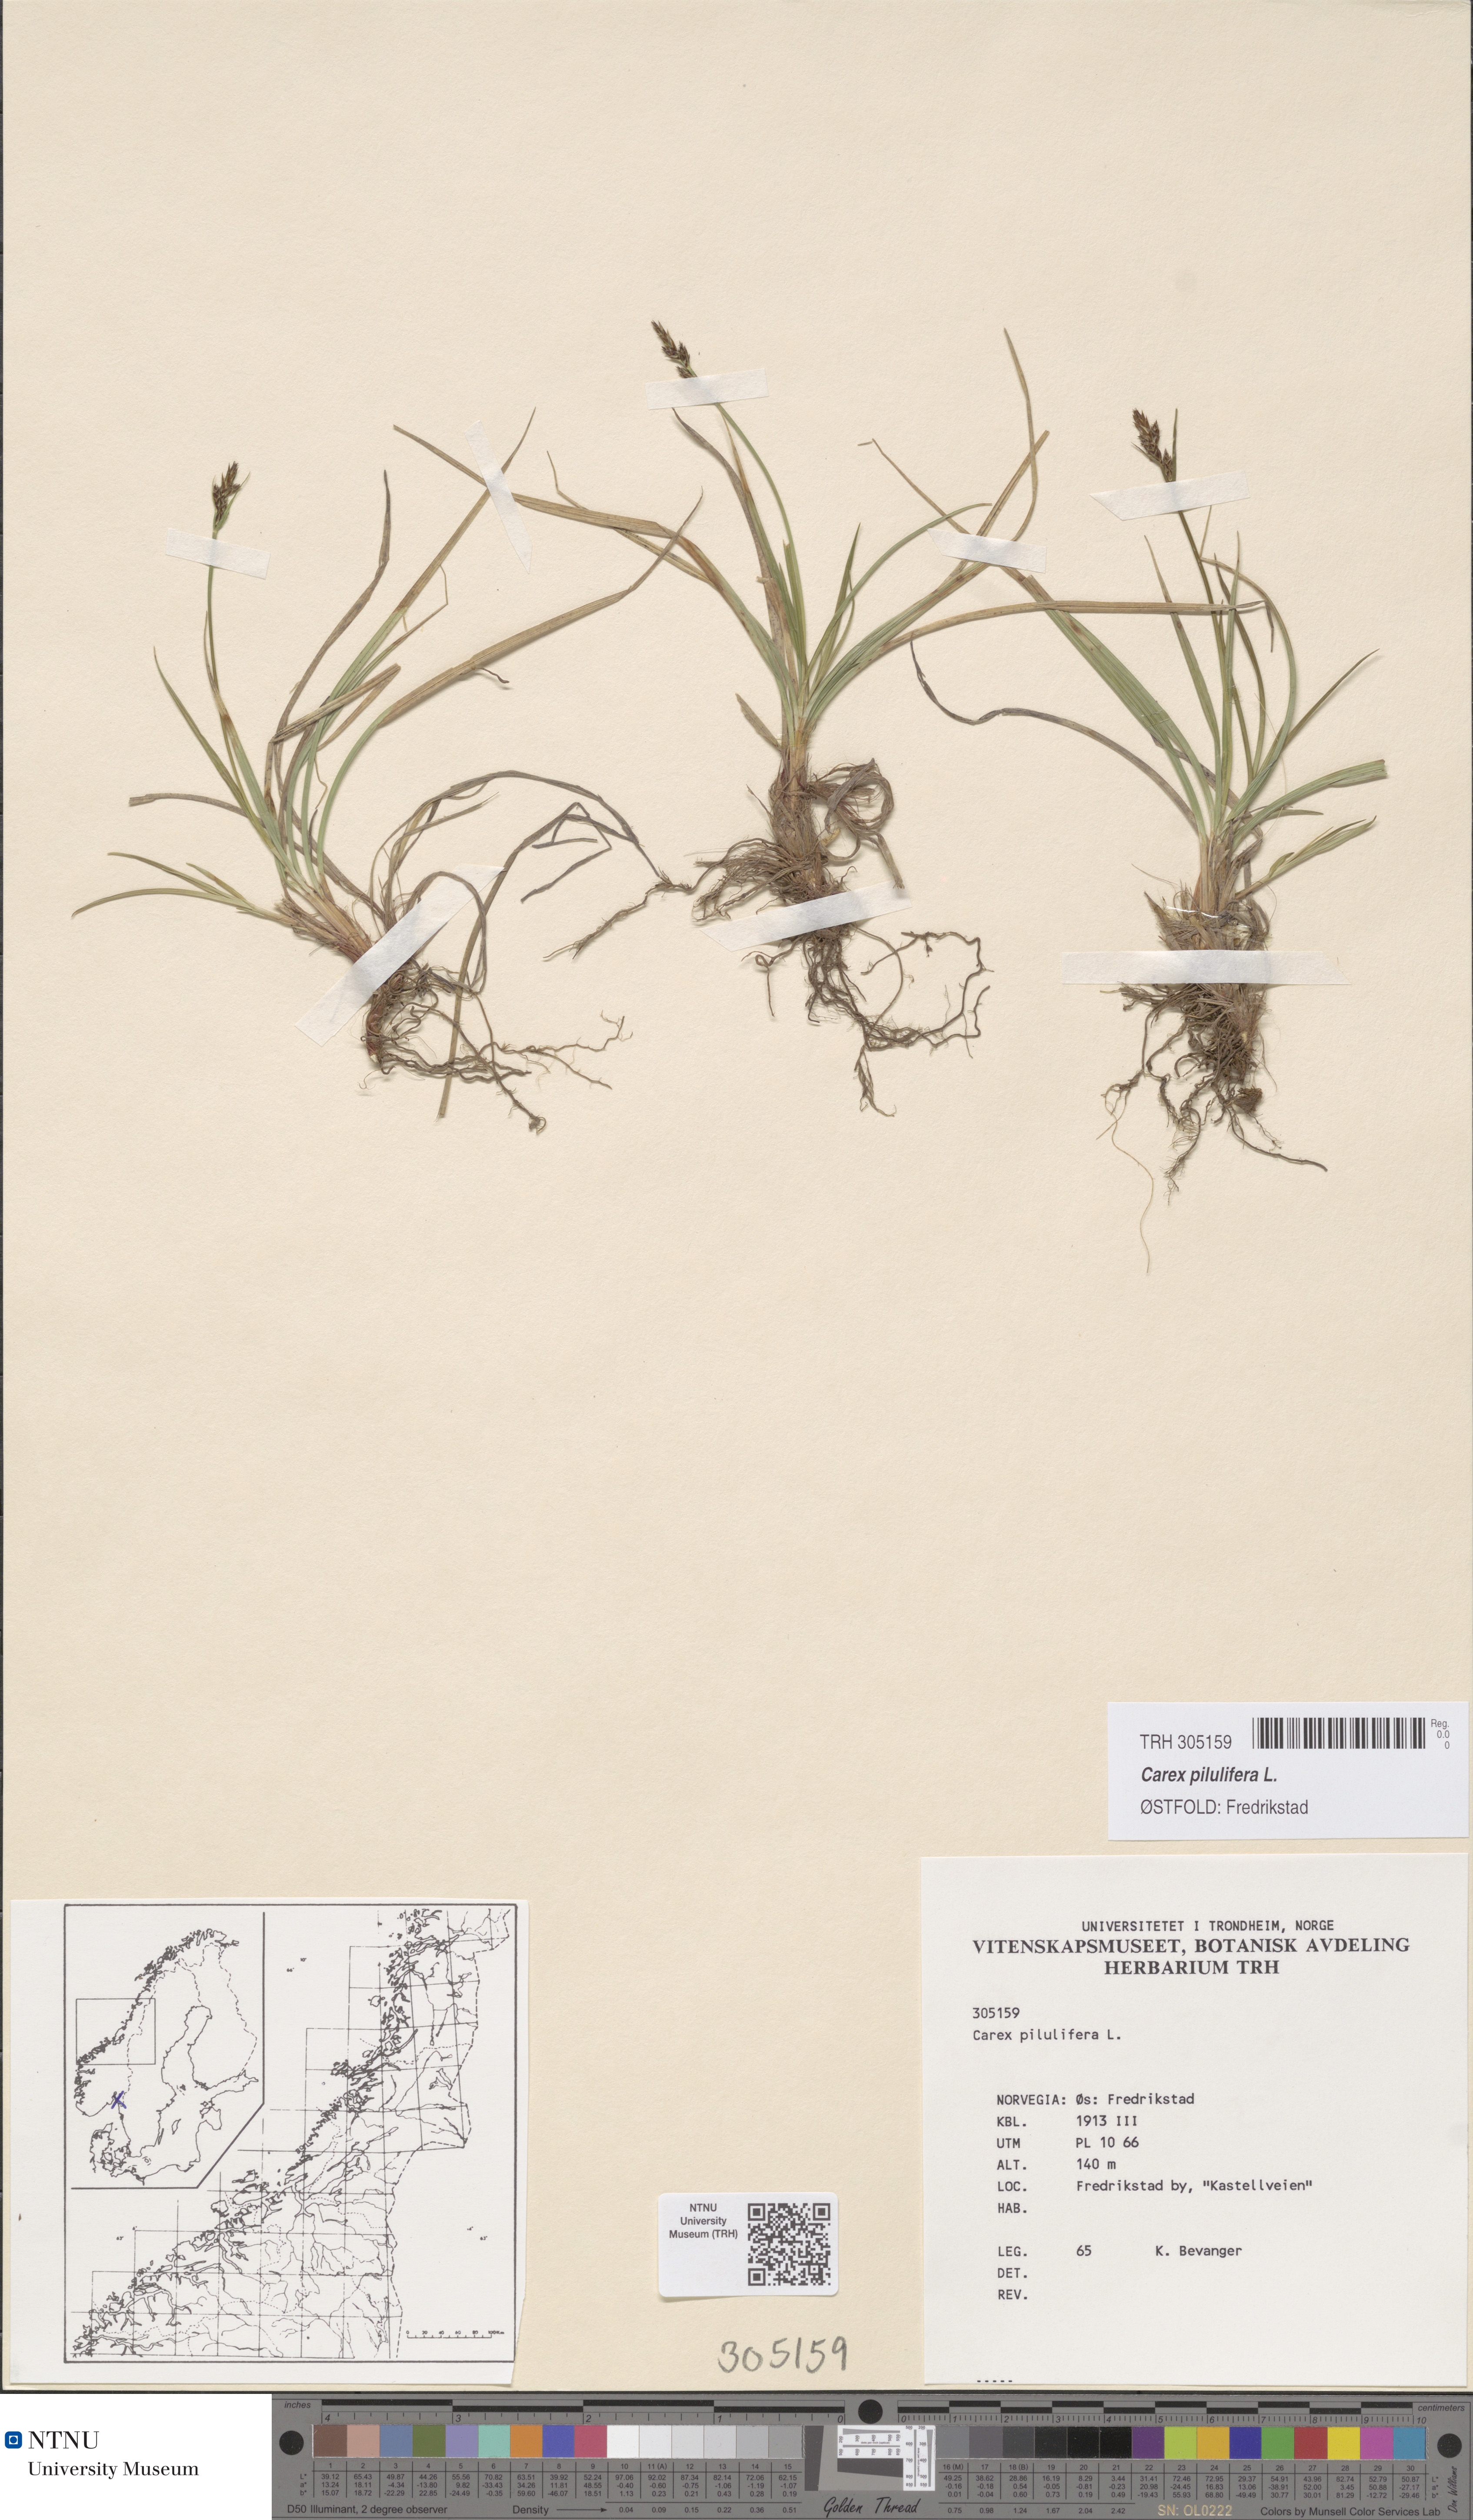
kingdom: Plantae
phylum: Tracheophyta
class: Liliopsida
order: Poales
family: Cyperaceae
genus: Carex
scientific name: Carex pilulifera
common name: Pill sedge
